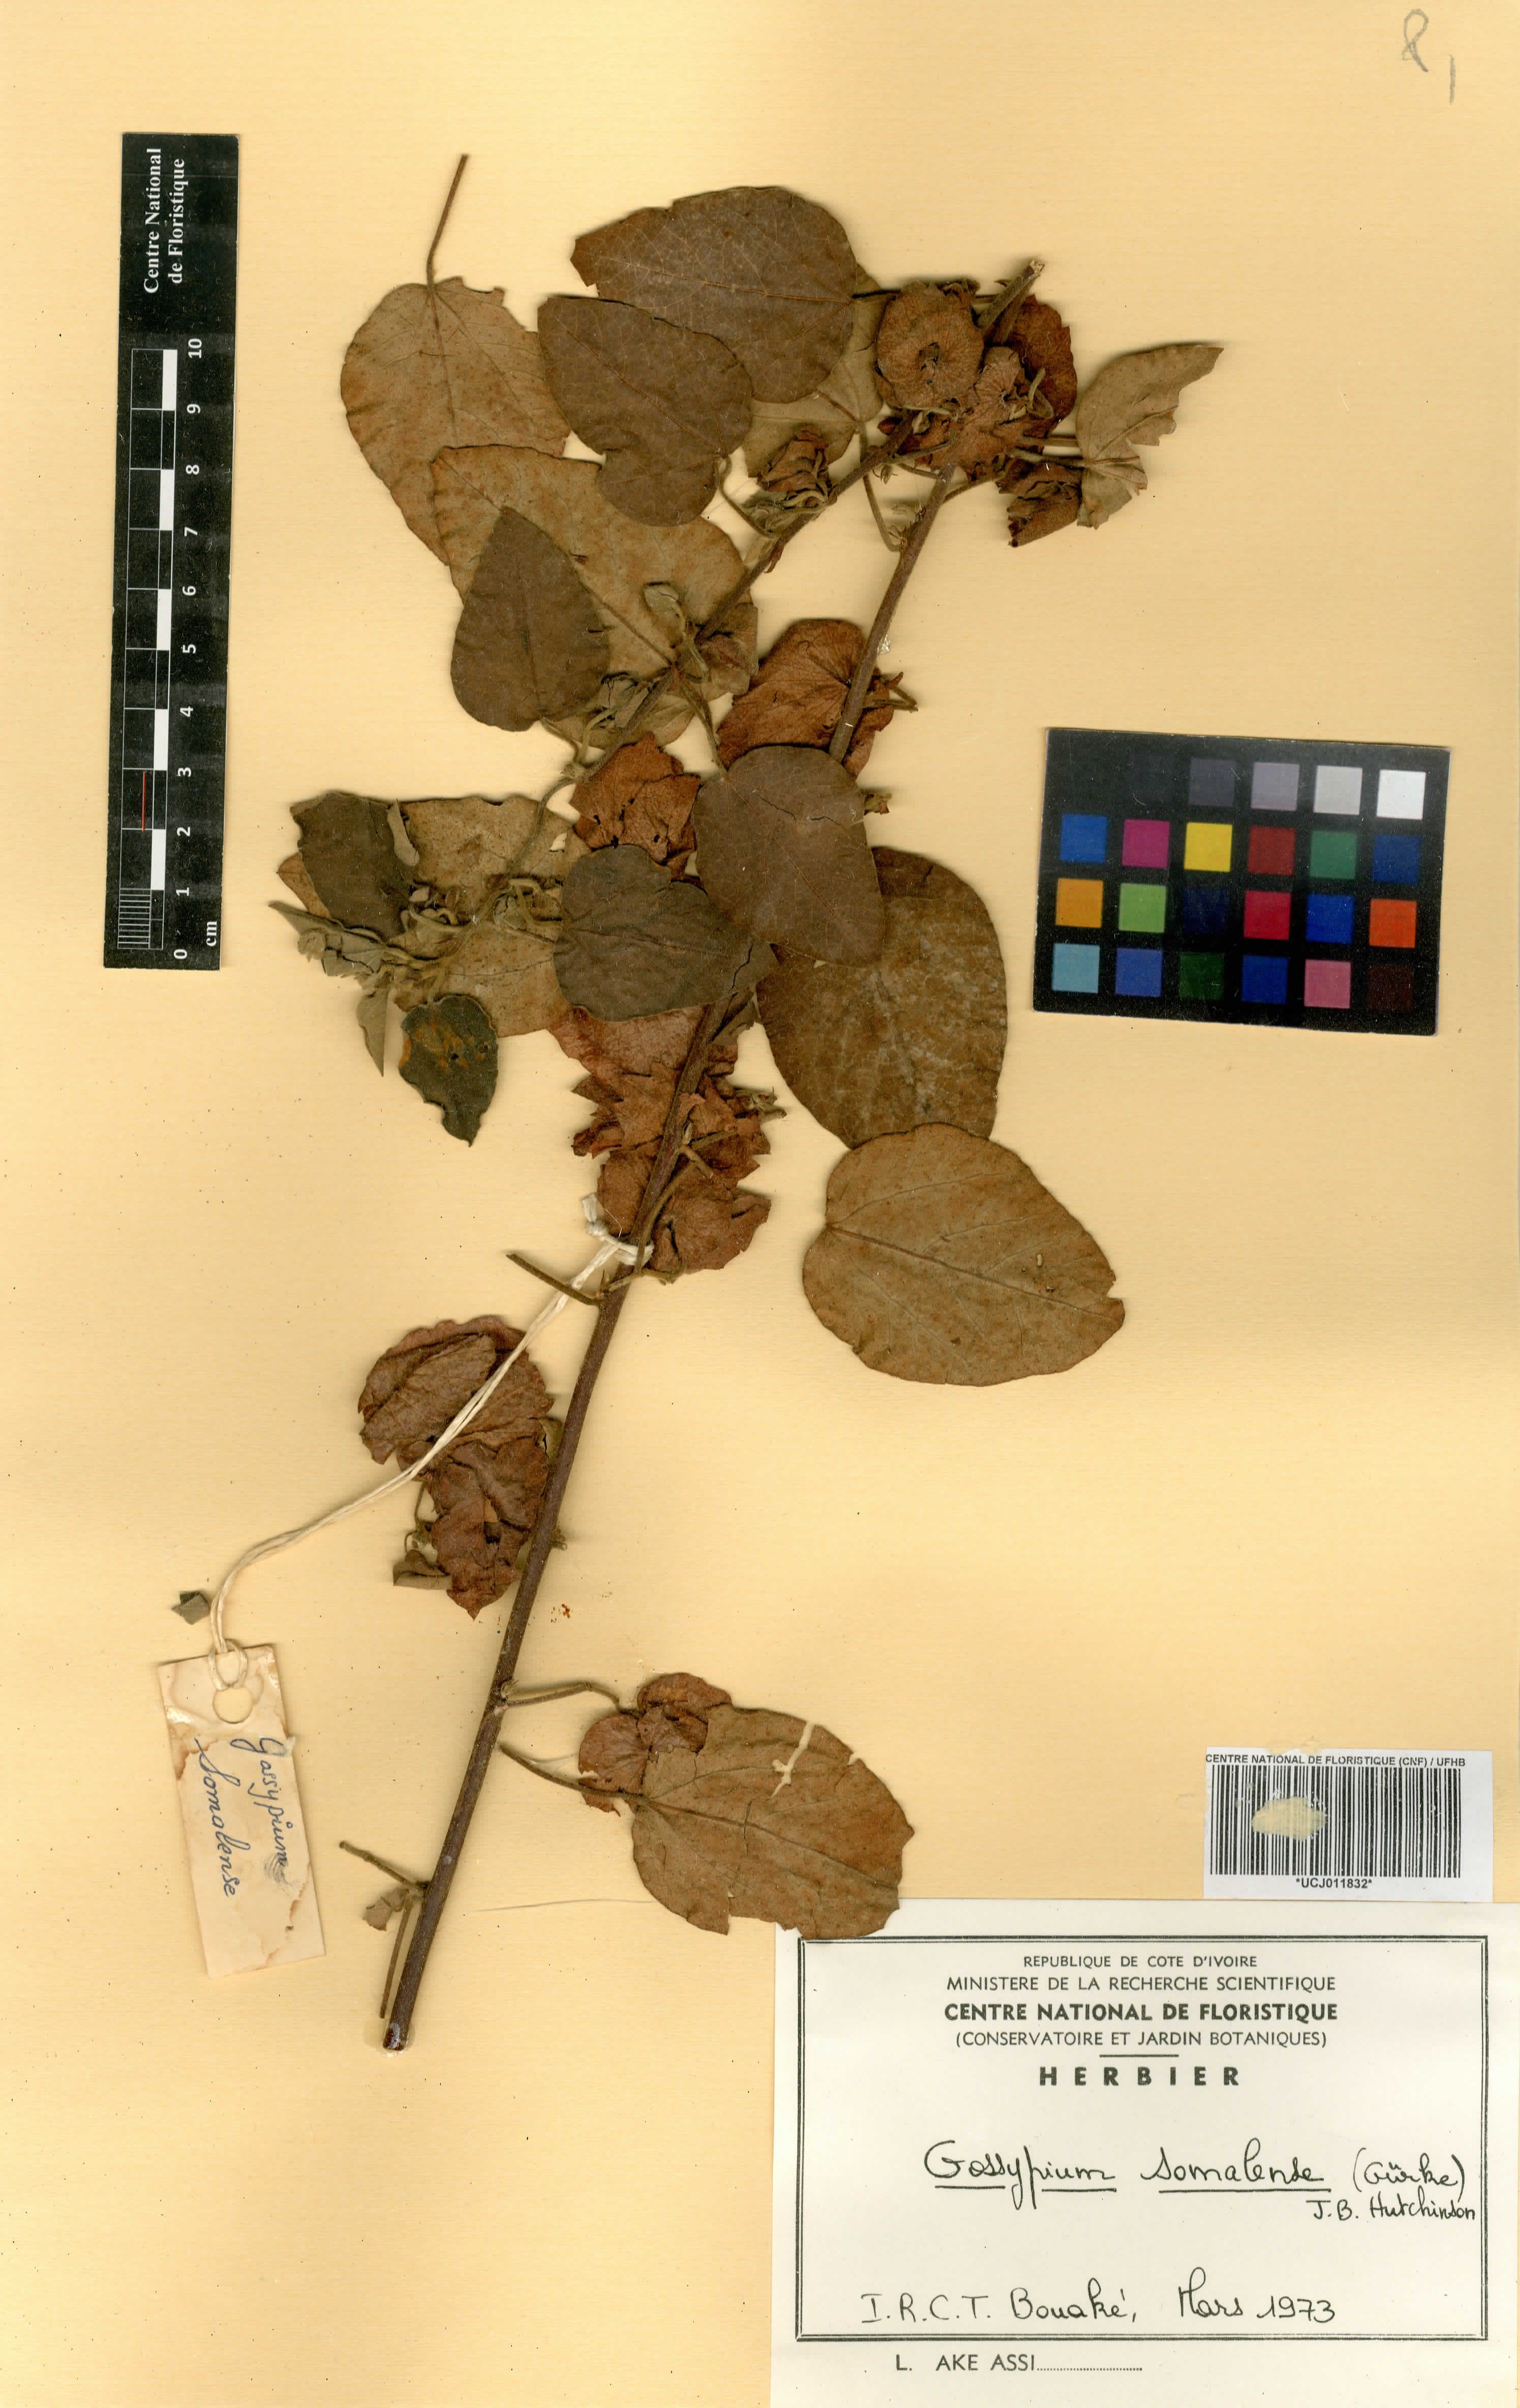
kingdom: Plantae
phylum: Tracheophyta
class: Magnoliopsida
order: Malvales
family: Malvaceae
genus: Gossypium
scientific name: Gossypium somalense
